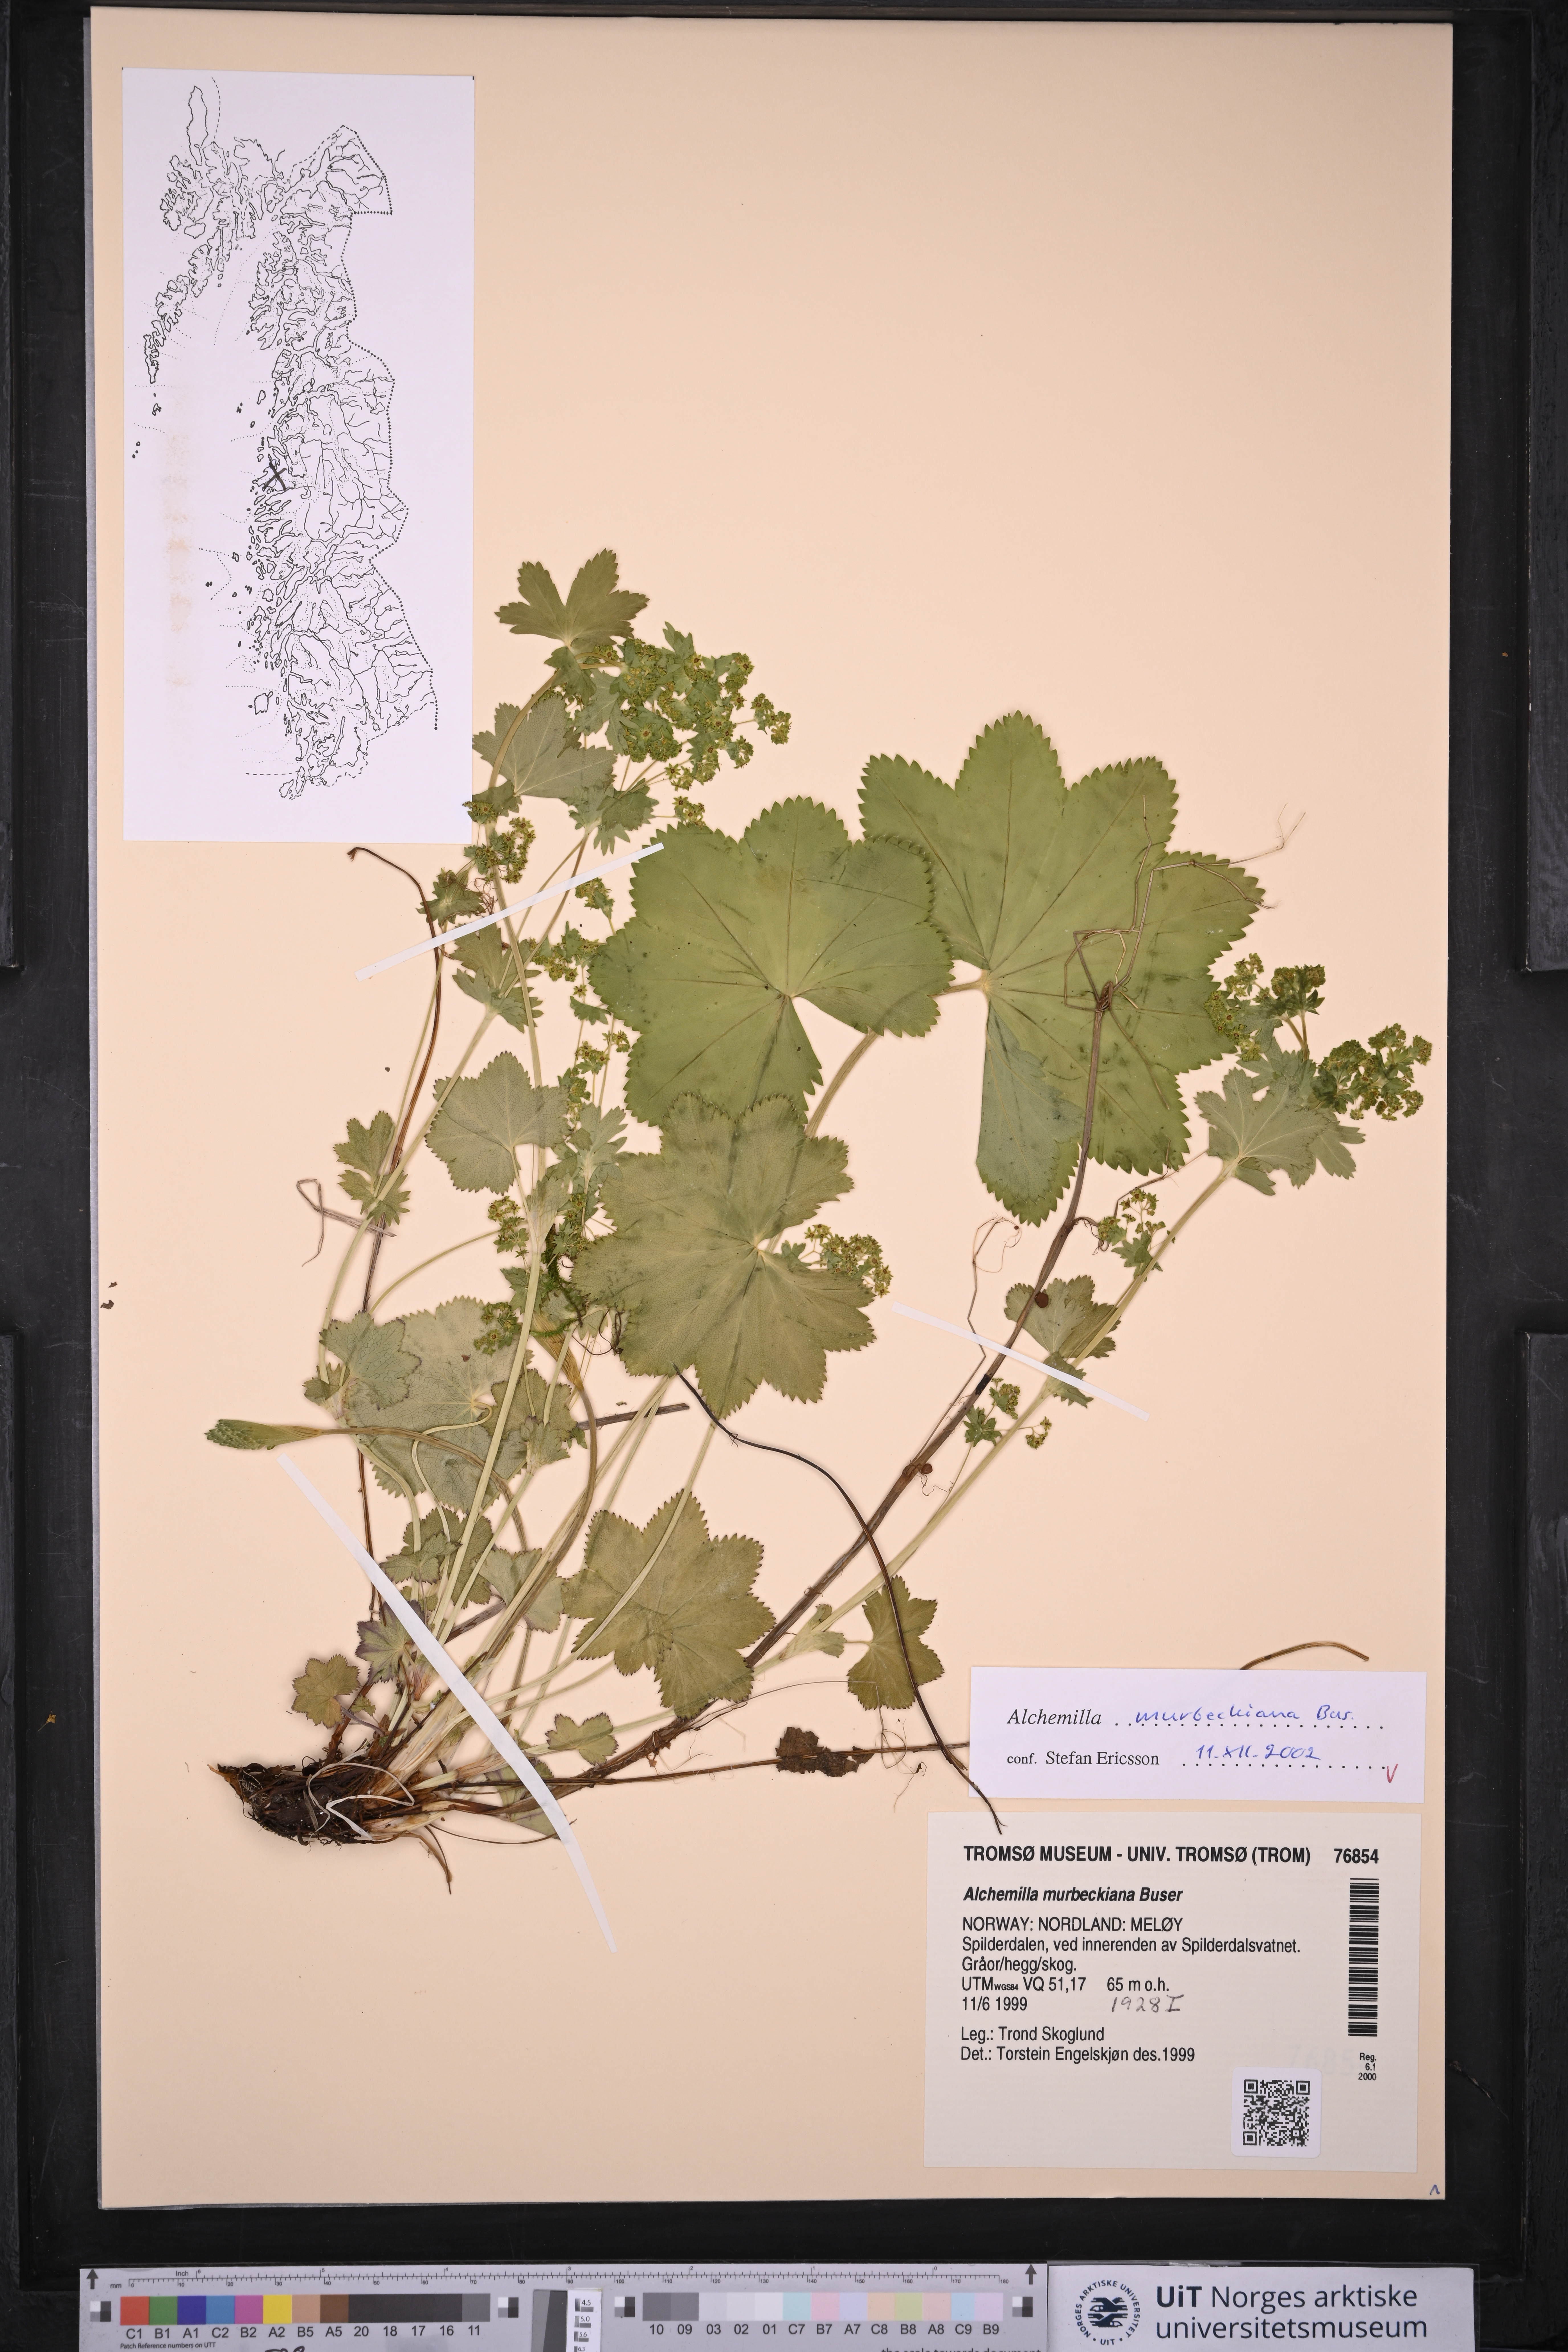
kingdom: Plantae
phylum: Tracheophyta
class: Magnoliopsida
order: Rosales
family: Rosaceae
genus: Alchemilla
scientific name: Alchemilla murbeckiana
